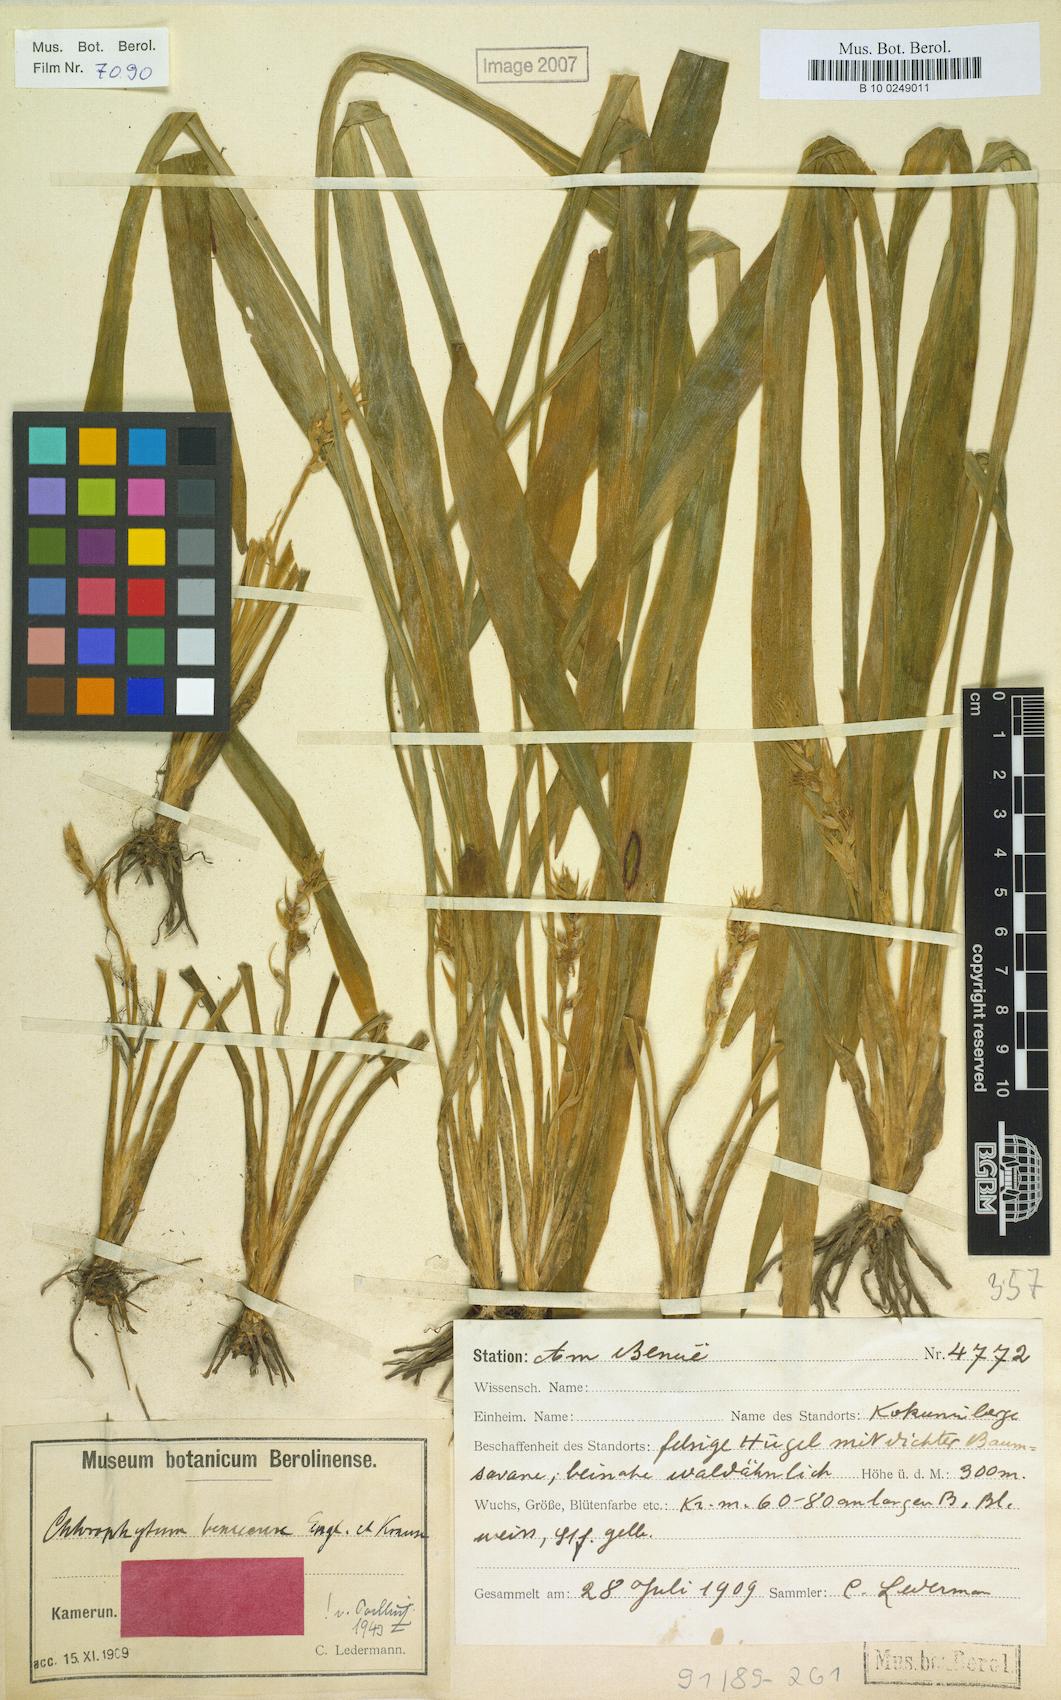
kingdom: Plantae
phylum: Tracheophyta
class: Liliopsida
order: Asparagales
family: Asparagaceae
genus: Chlorophytum
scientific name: Chlorophytum benuense
